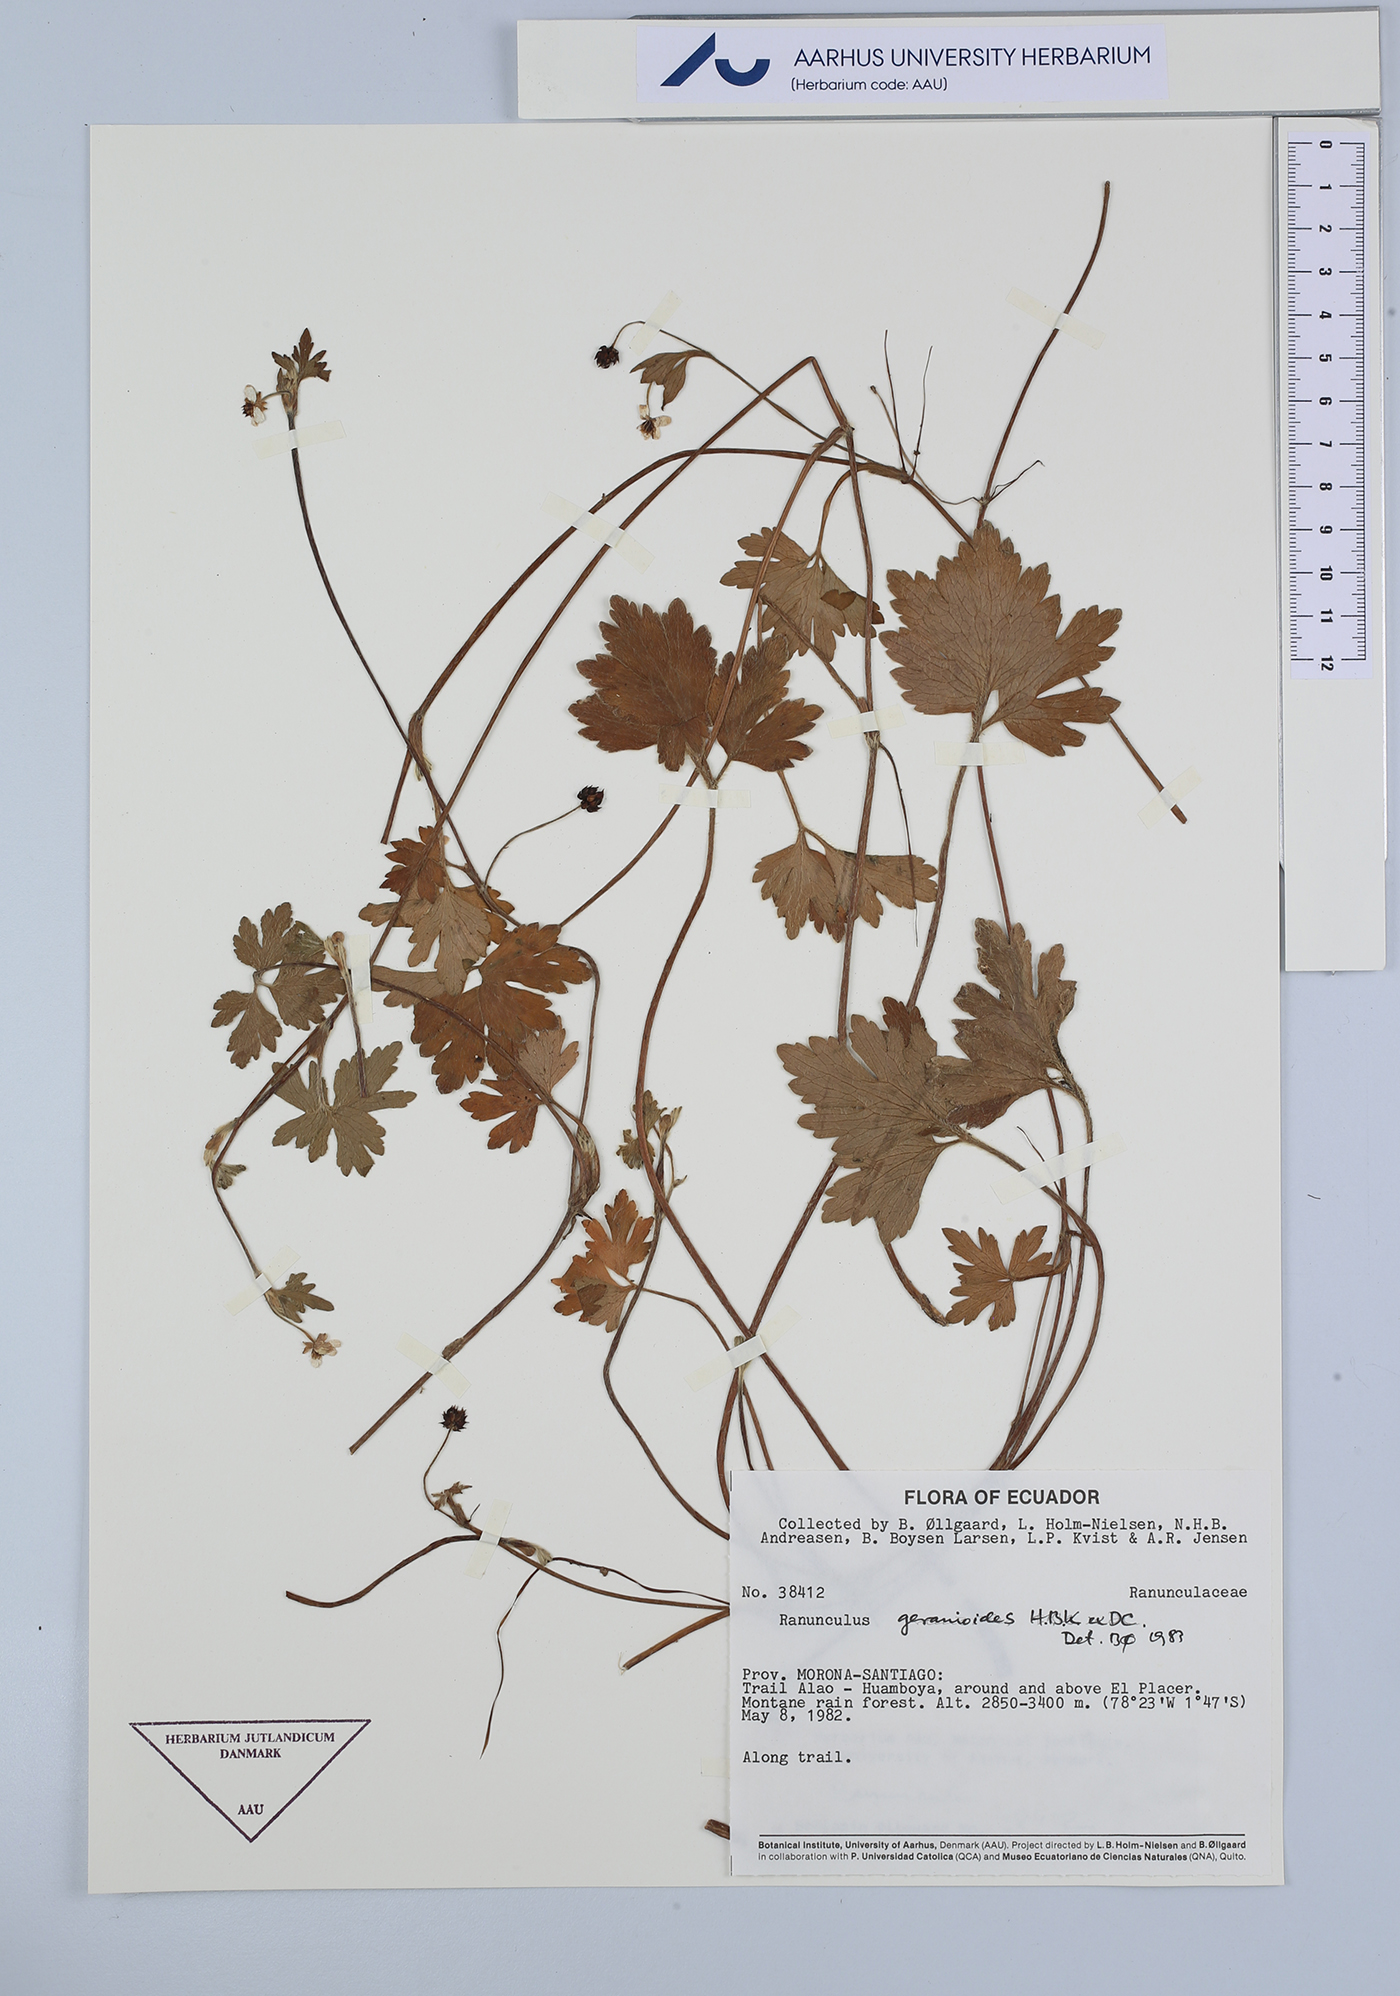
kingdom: Plantae
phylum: Tracheophyta
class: Magnoliopsida
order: Ranunculales
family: Ranunculaceae
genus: Ranunculus
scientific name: Ranunculus geranioides
